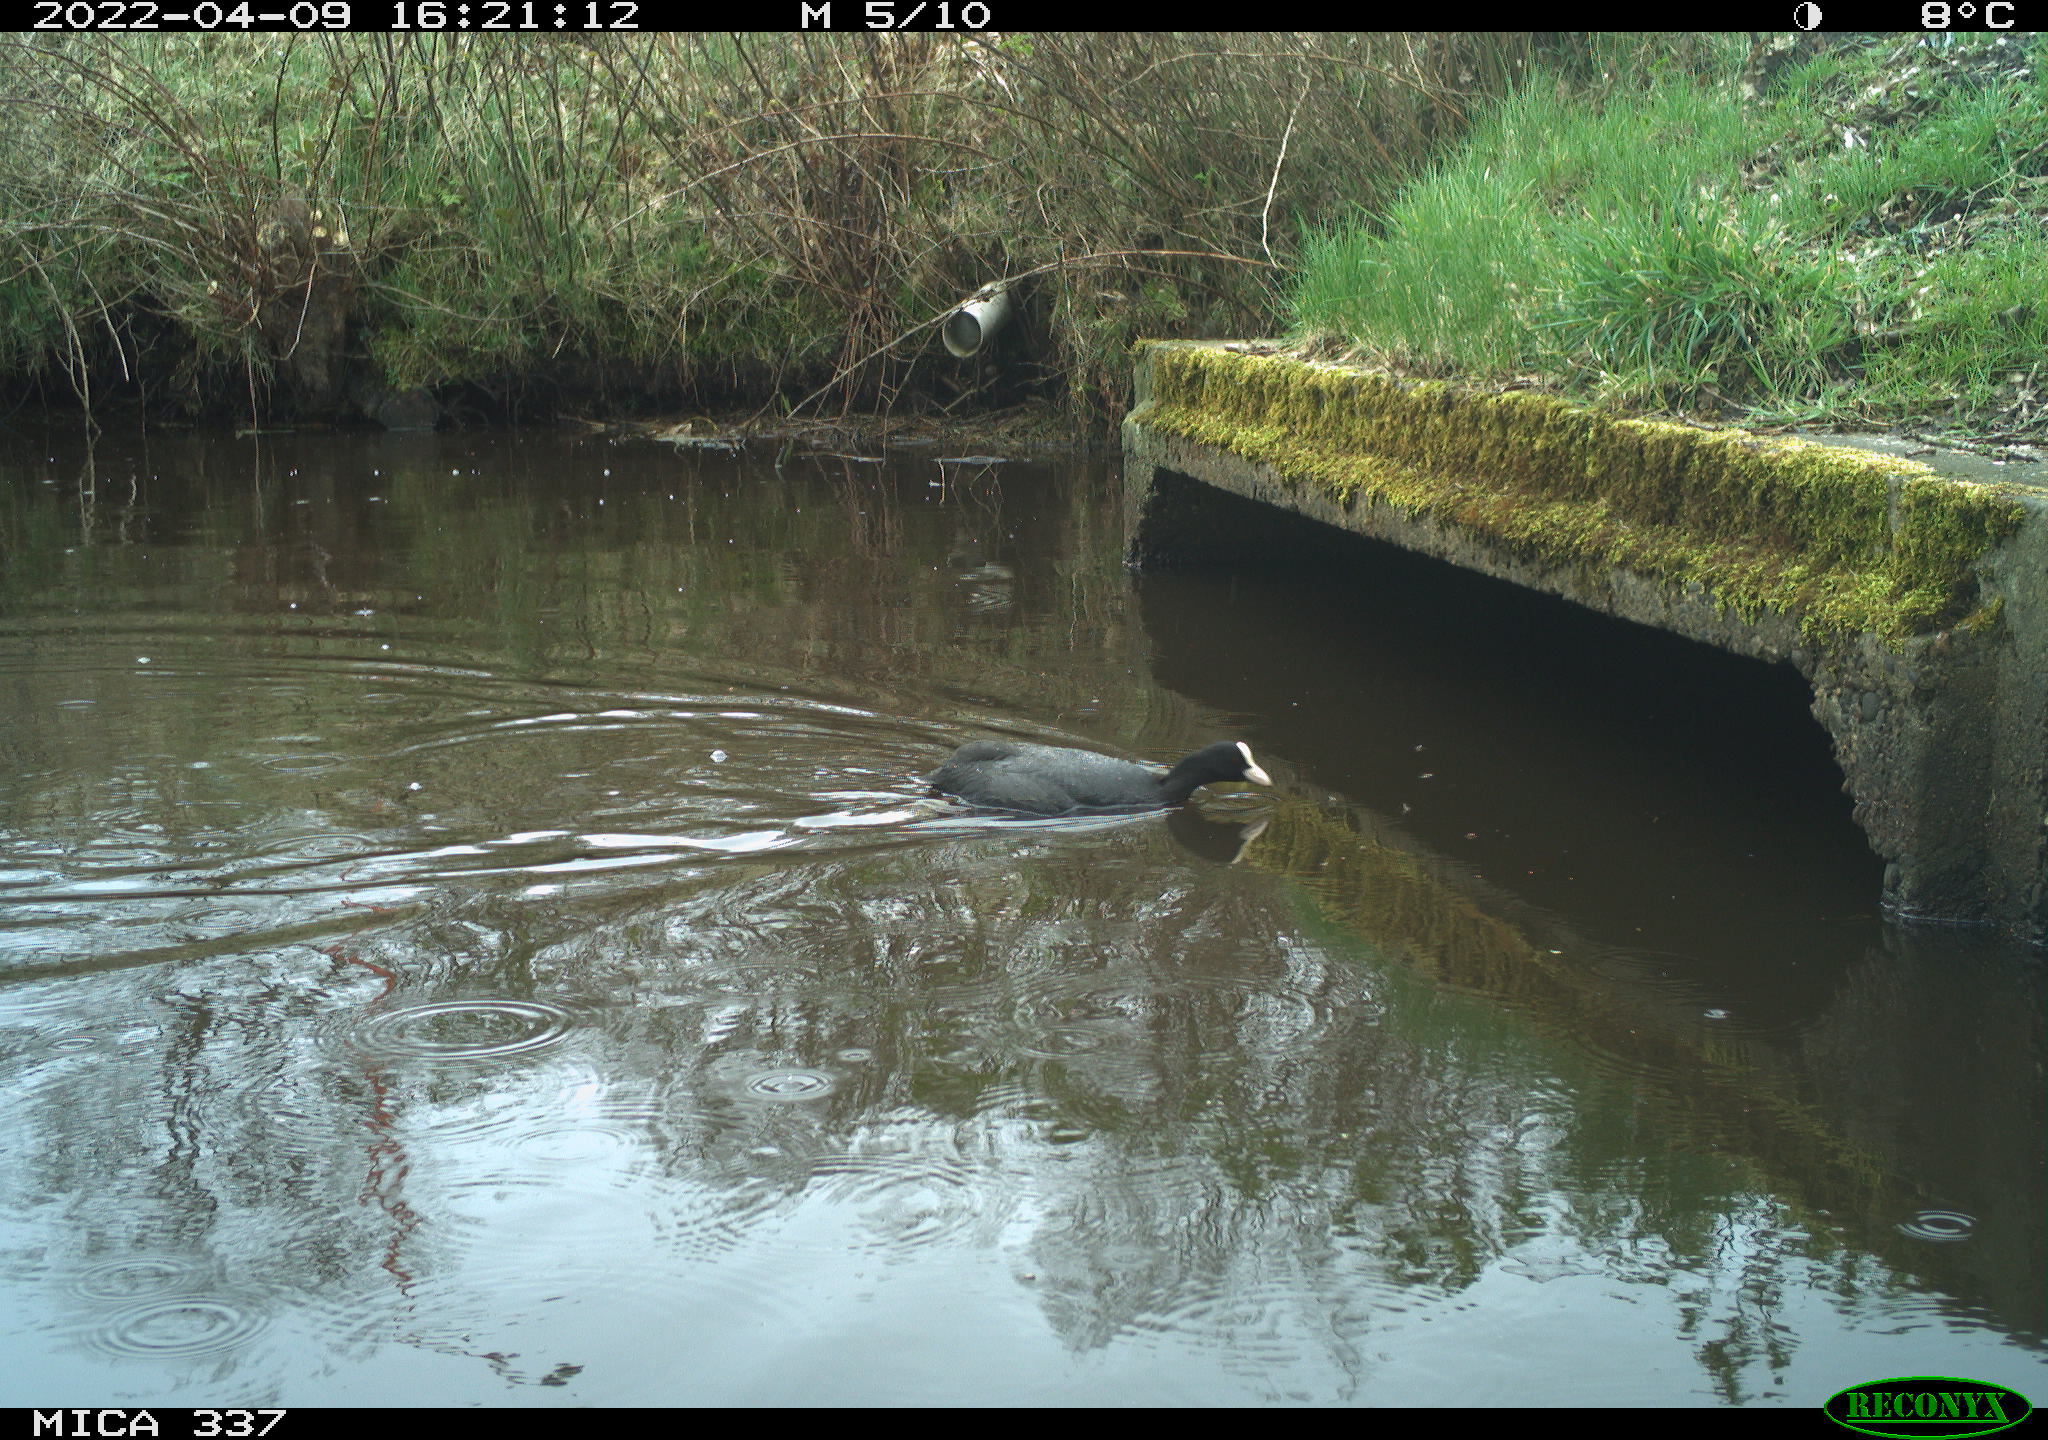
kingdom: Animalia
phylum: Chordata
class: Aves
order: Gruiformes
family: Rallidae
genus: Fulica
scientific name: Fulica atra
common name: Eurasian coot
